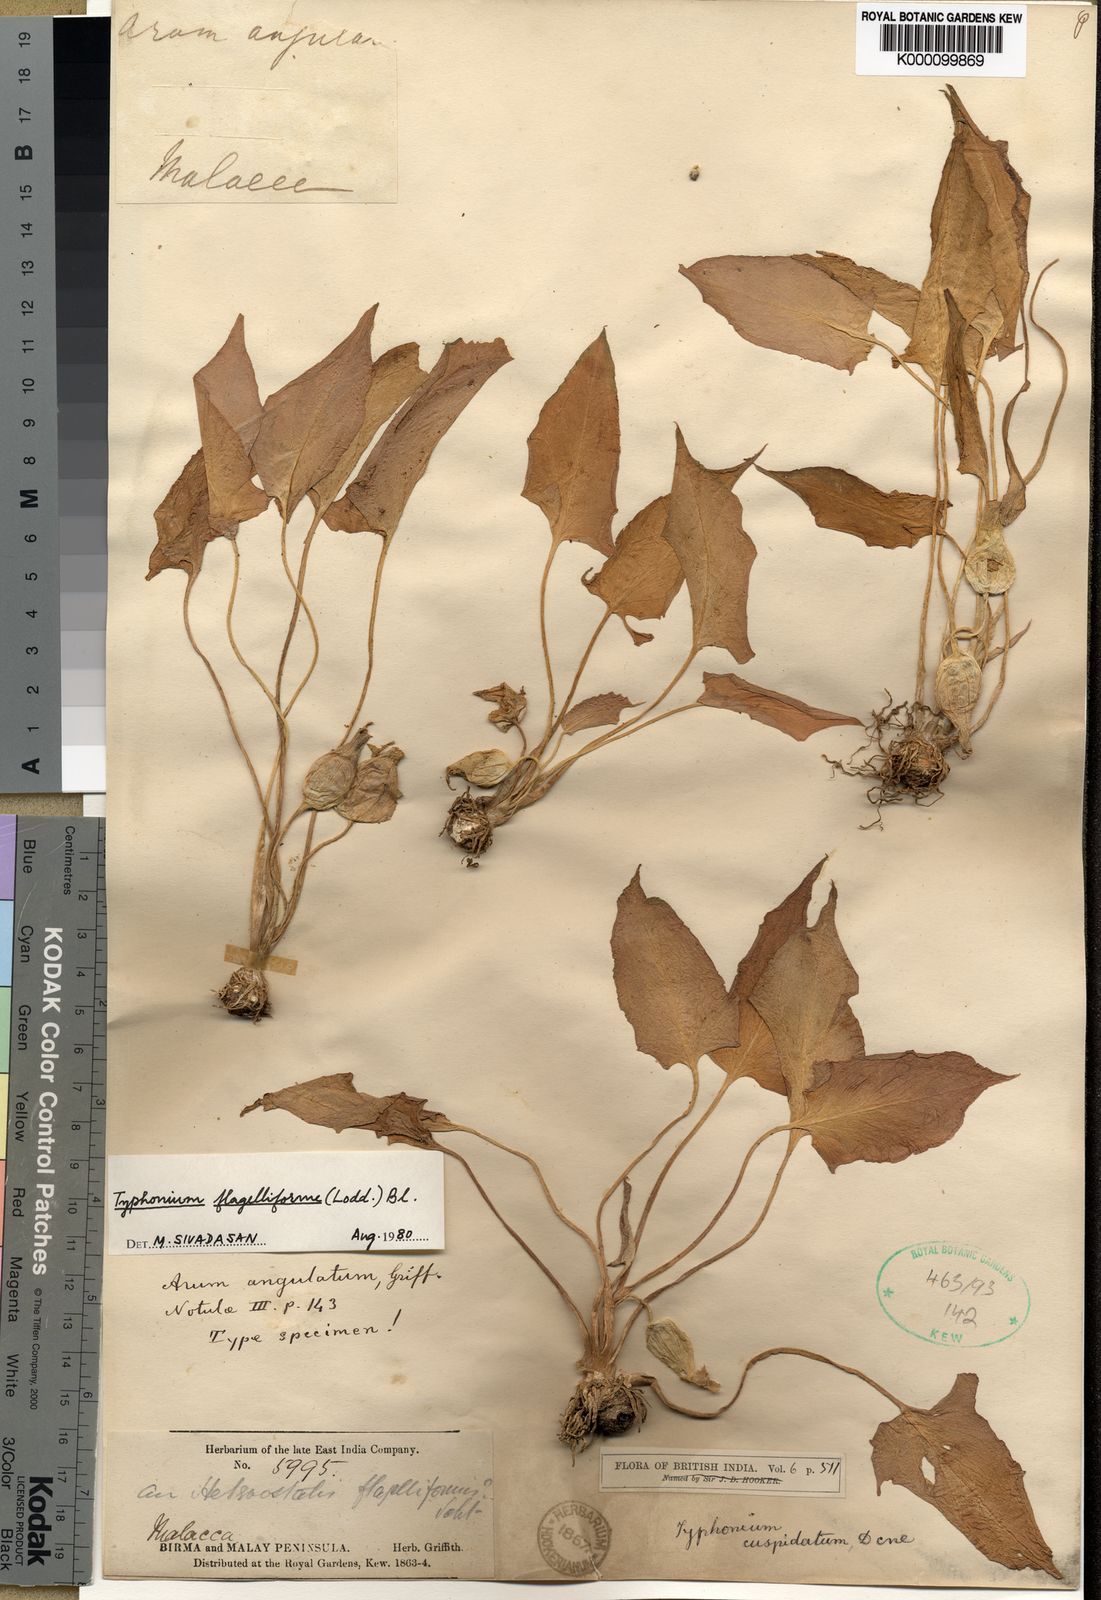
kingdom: Plantae
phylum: Tracheophyta
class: Liliopsida
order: Alismatales
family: Araceae
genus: Typhonium
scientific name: Typhonium flagelliforme
